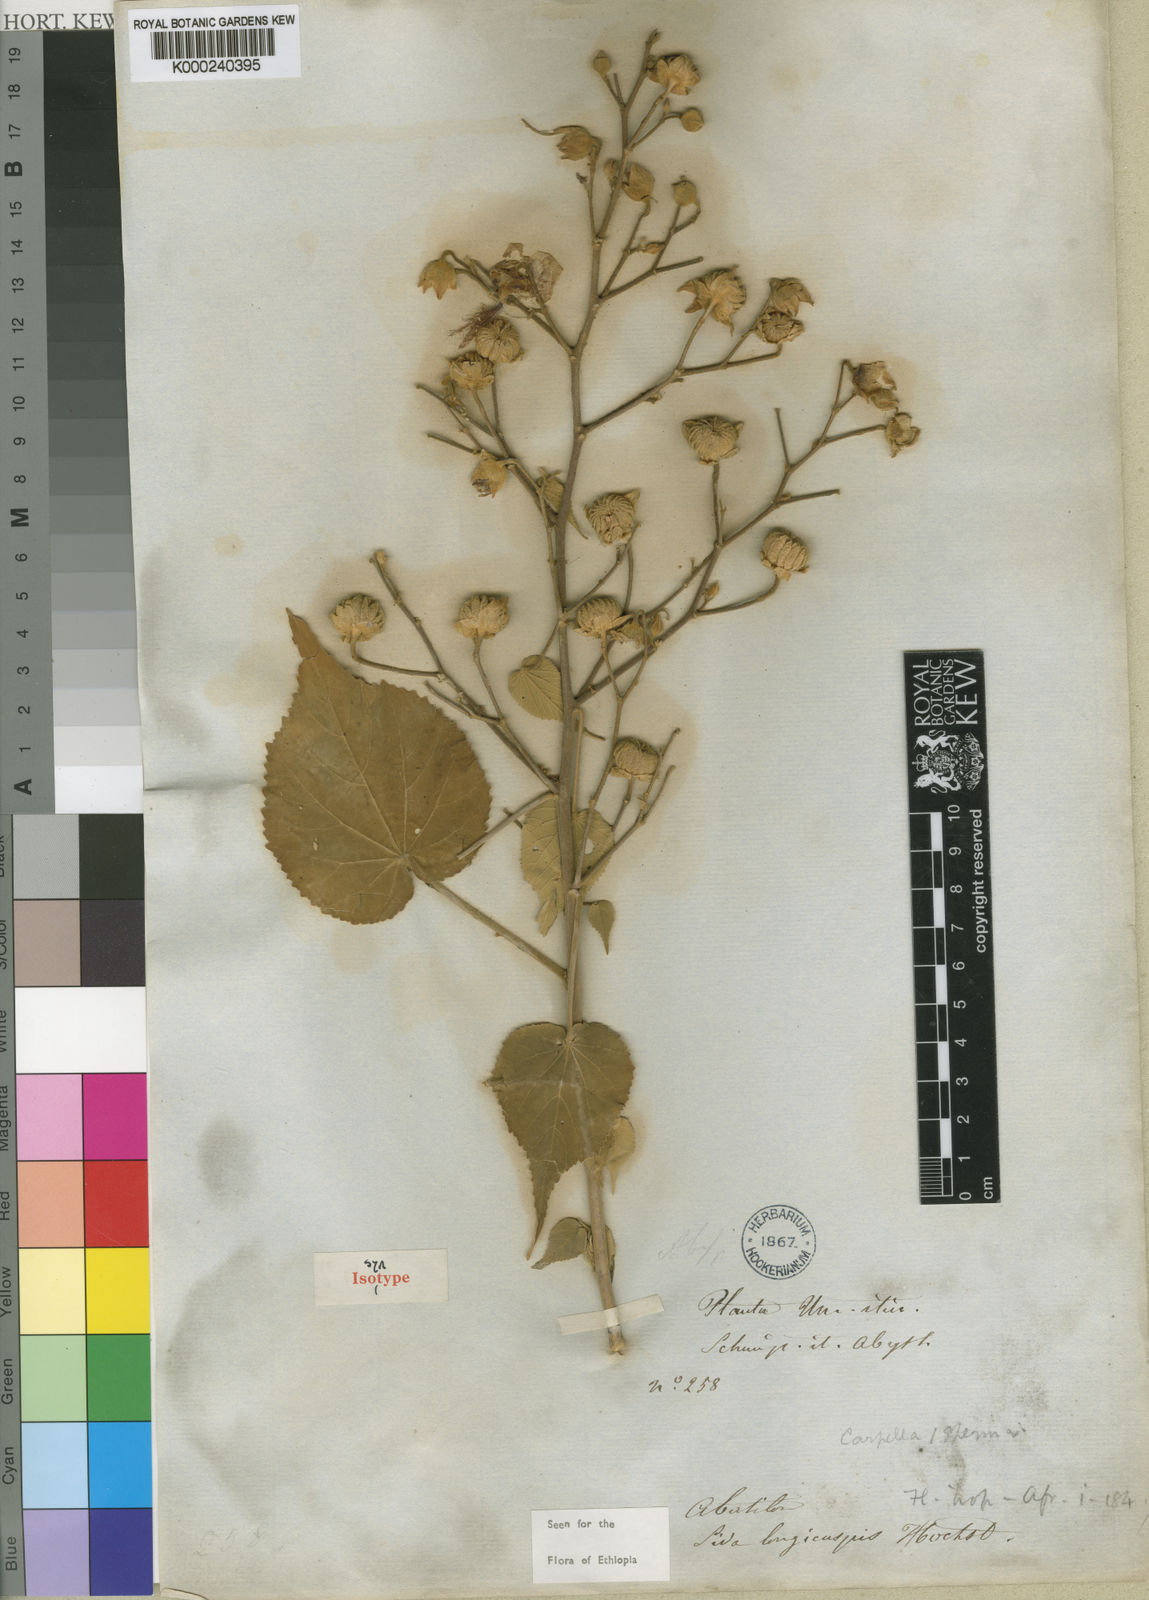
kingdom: Plantae
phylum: Tracheophyta
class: Magnoliopsida
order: Malvales
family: Malvaceae
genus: Abutilon
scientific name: Abutilon longicuspe
